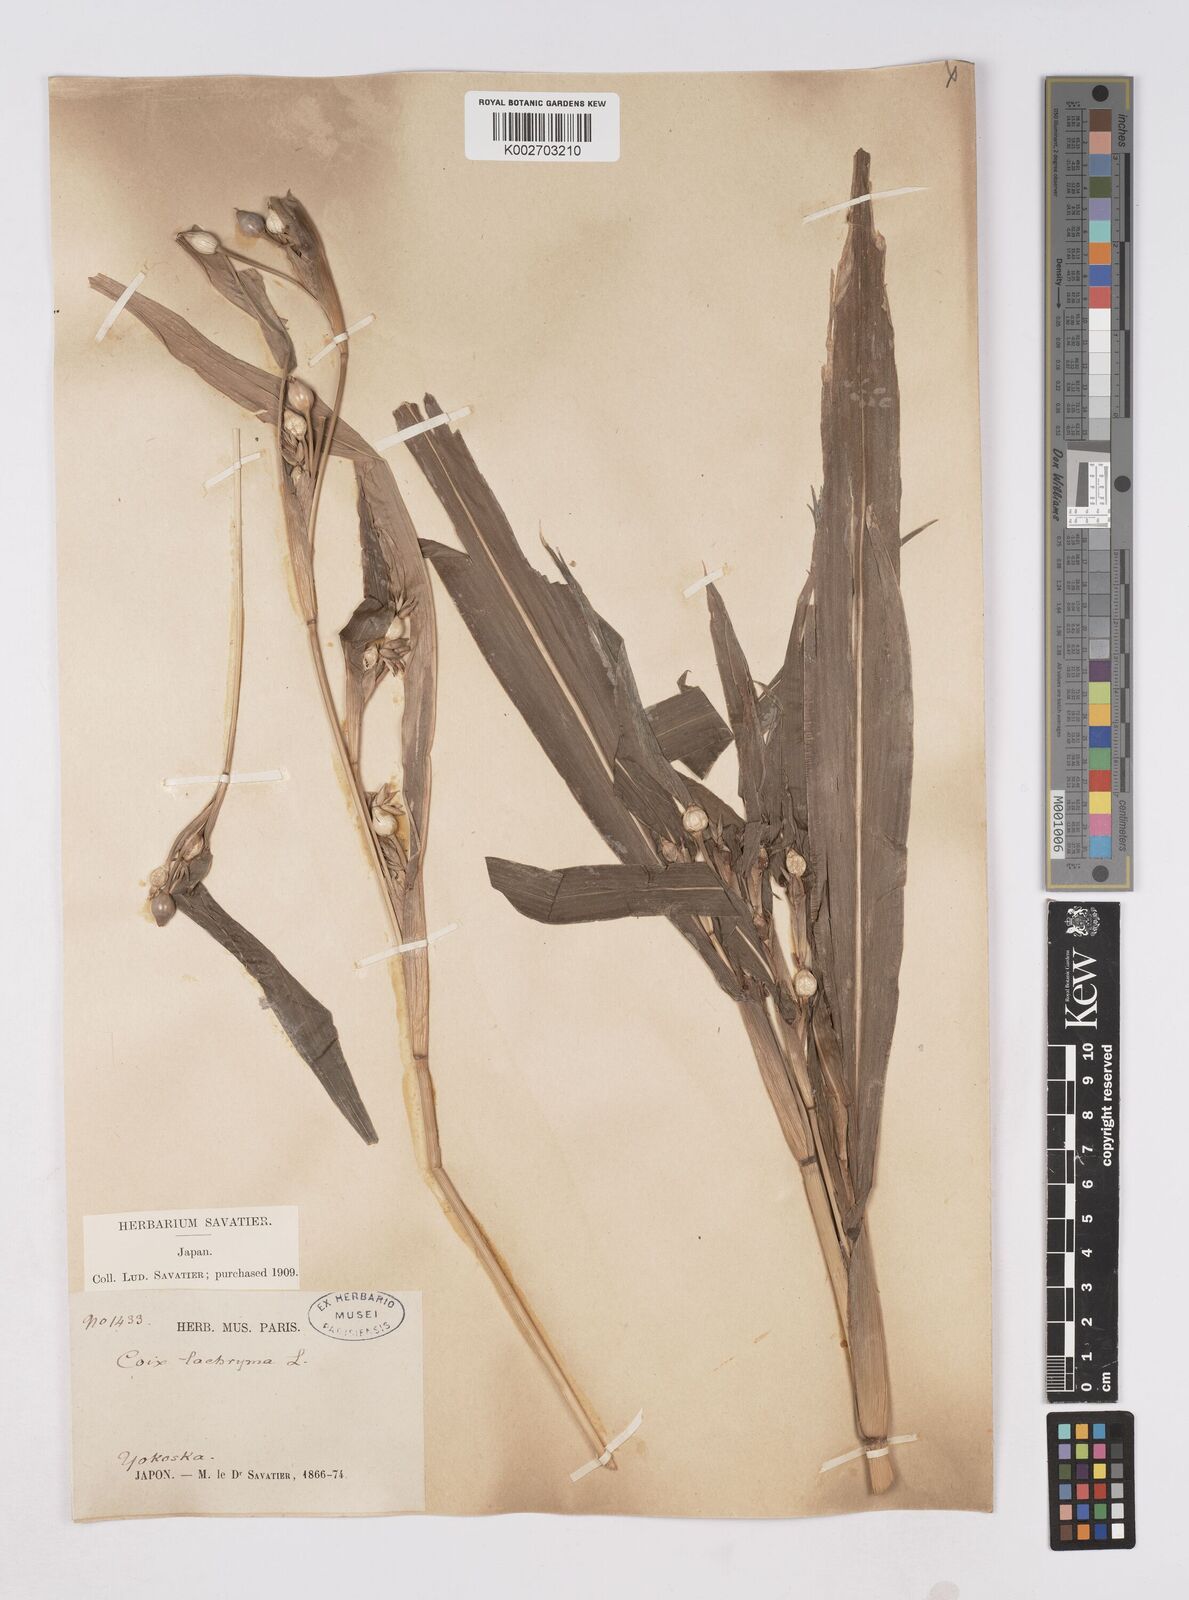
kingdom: Plantae
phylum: Tracheophyta
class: Liliopsida
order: Poales
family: Poaceae
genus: Coix
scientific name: Coix lacryma-jobi
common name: Job's tears
